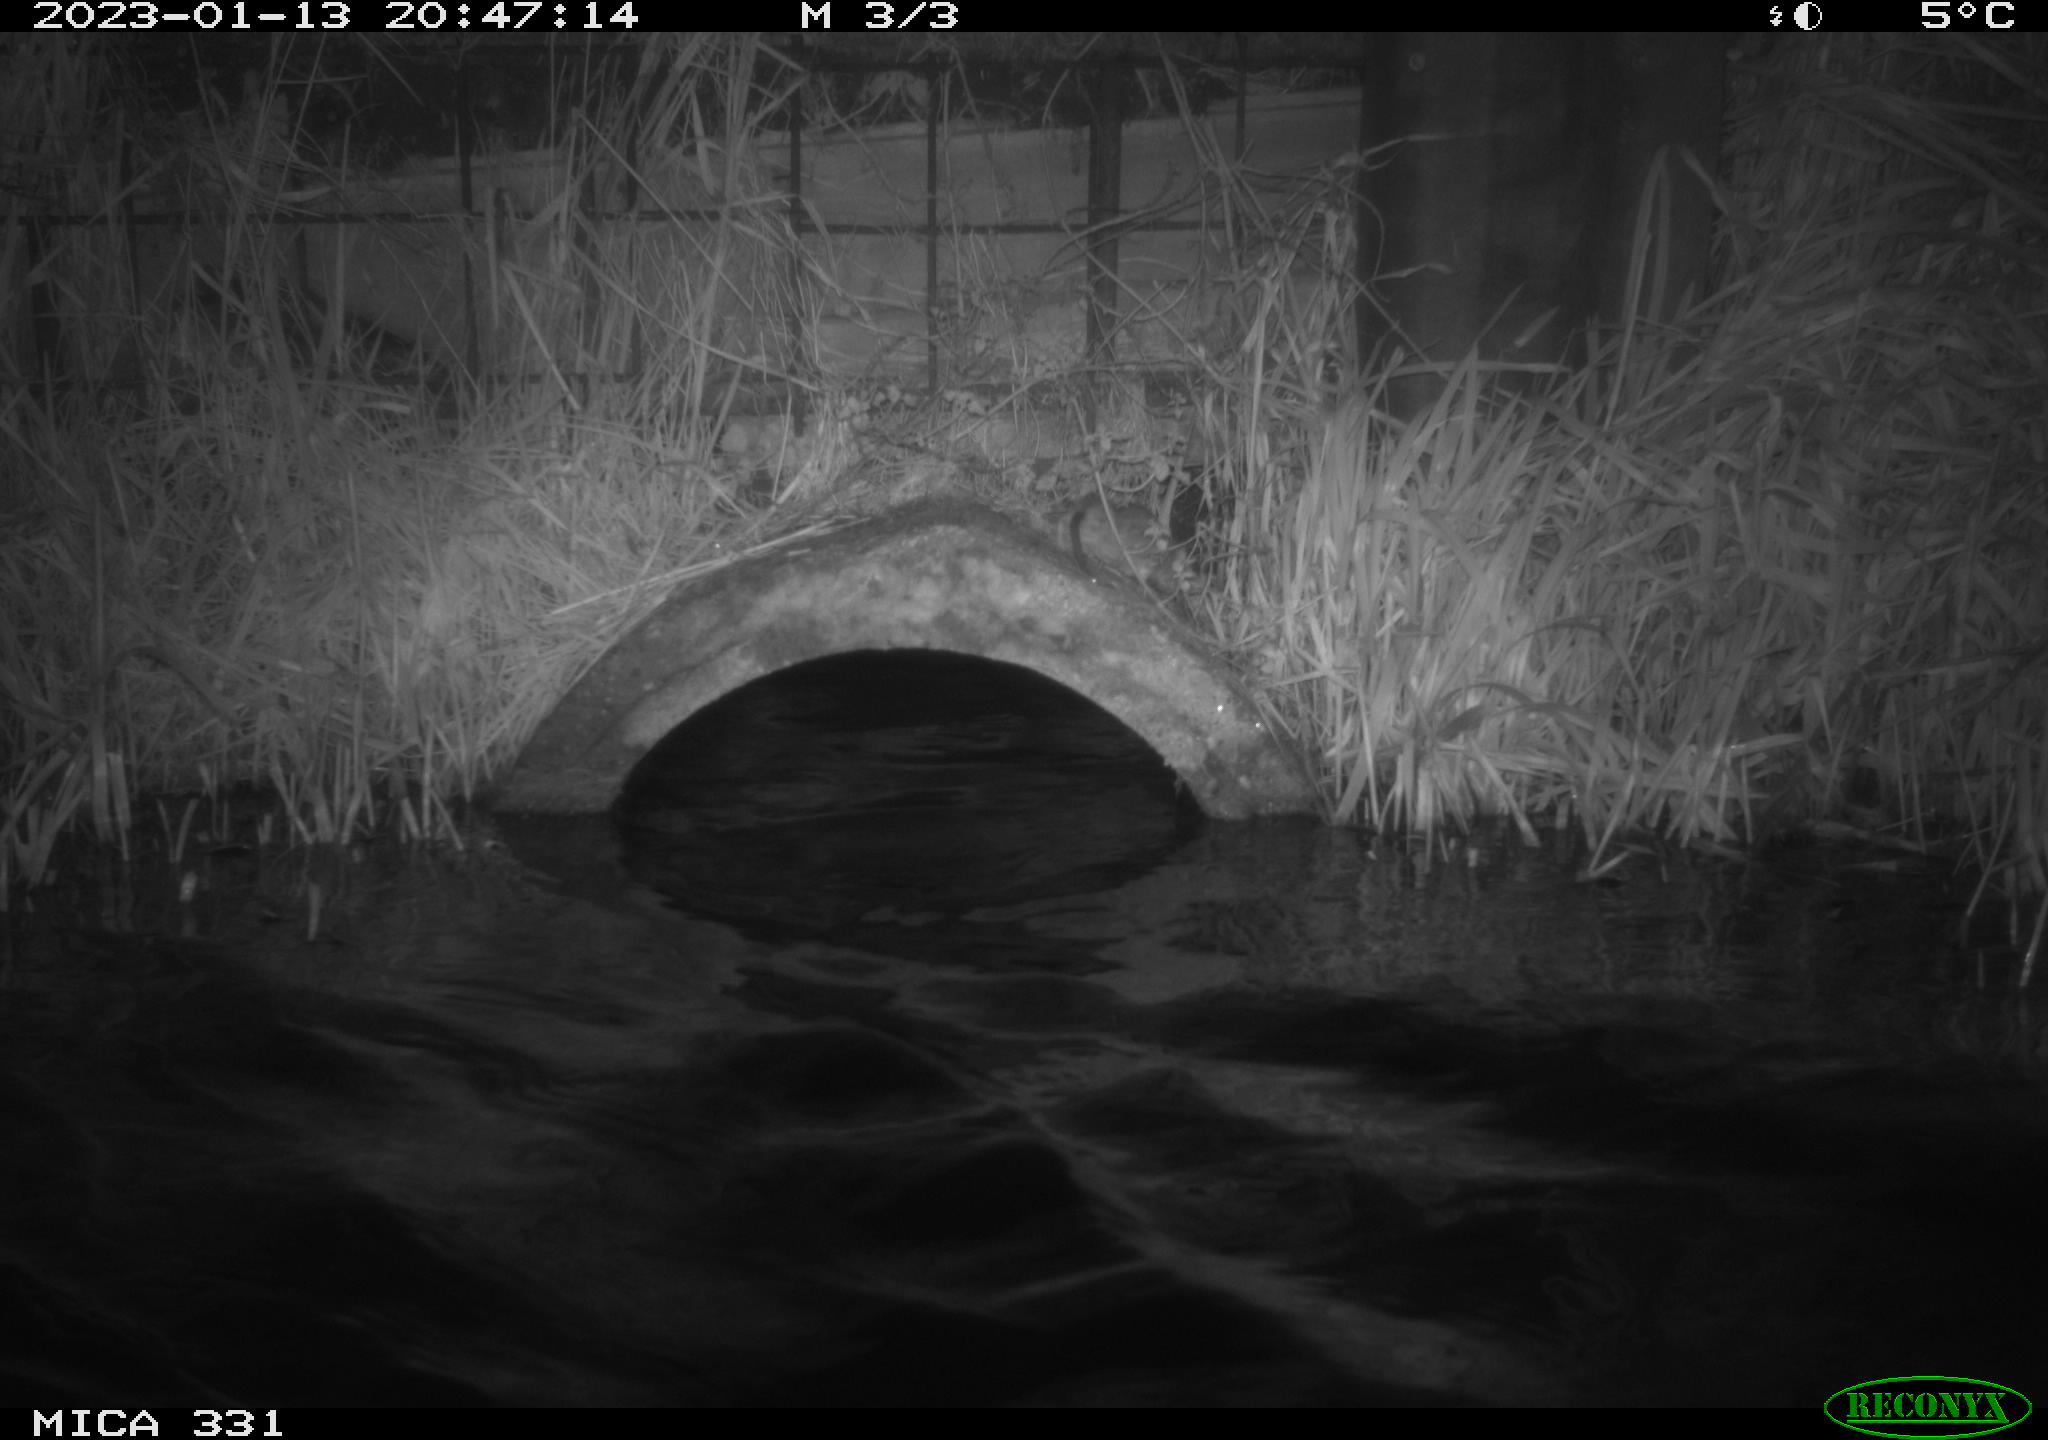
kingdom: Animalia
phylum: Chordata
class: Mammalia
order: Rodentia
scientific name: Rodentia
